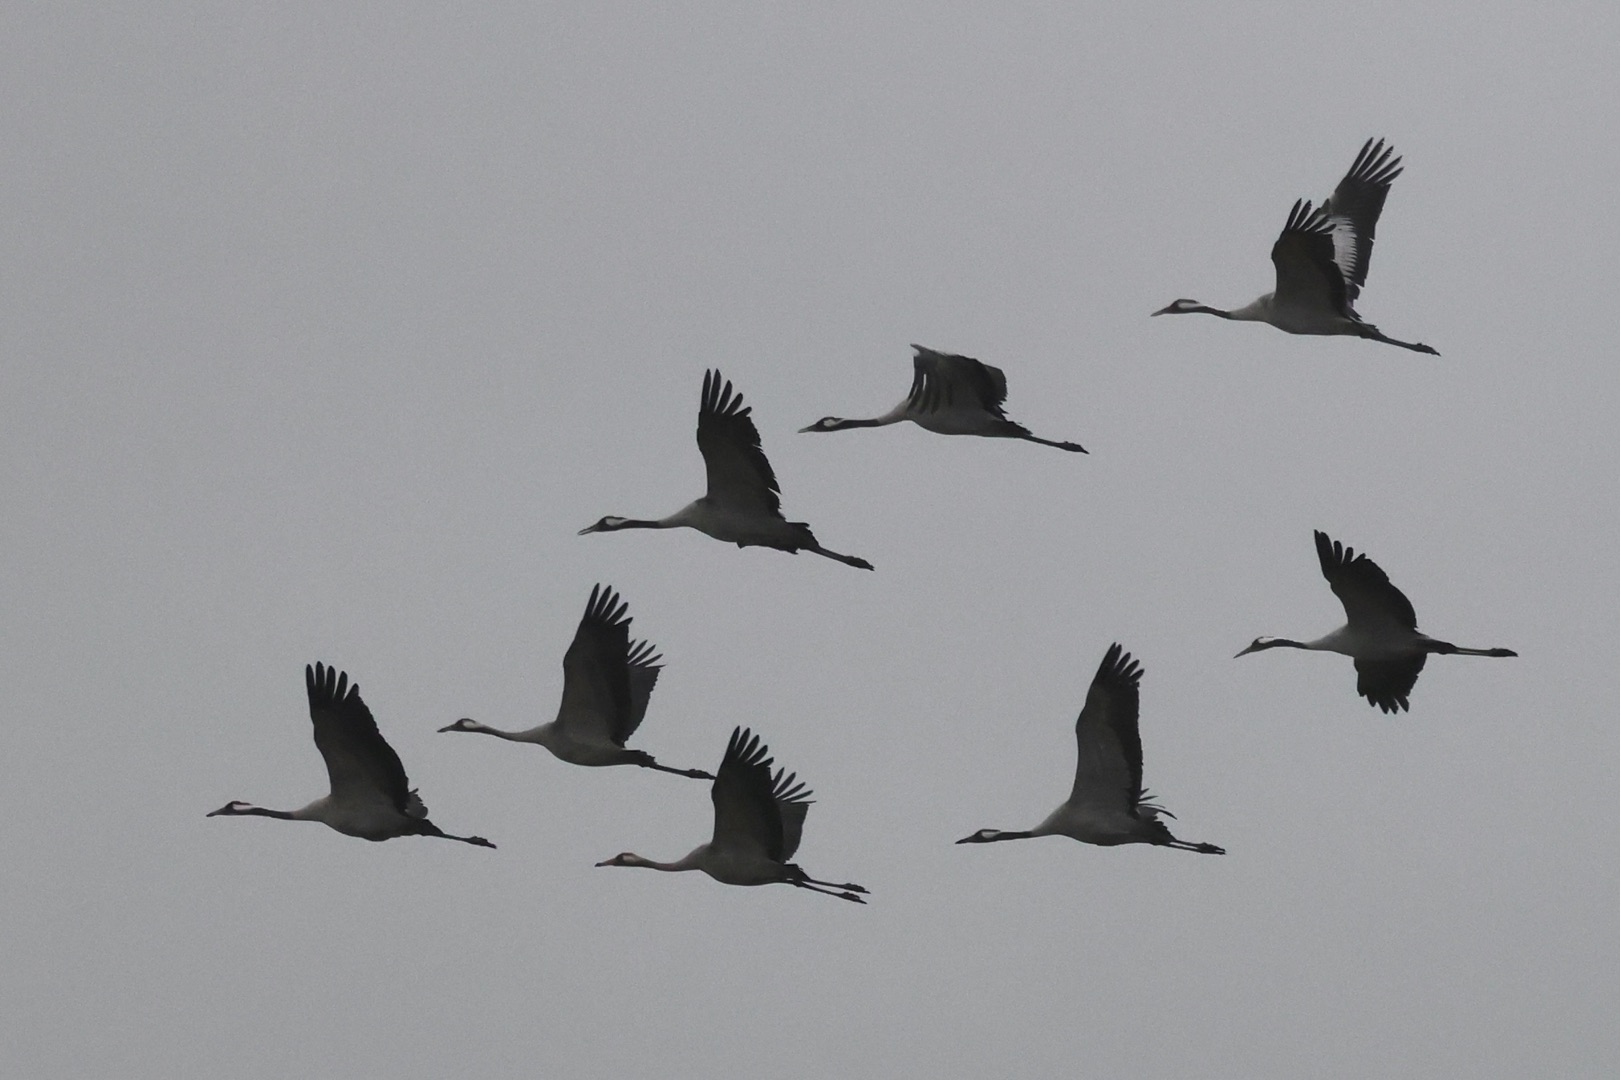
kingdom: Animalia
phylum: Chordata
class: Aves
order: Gruiformes
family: Gruidae
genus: Grus
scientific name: Grus grus
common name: Trane
